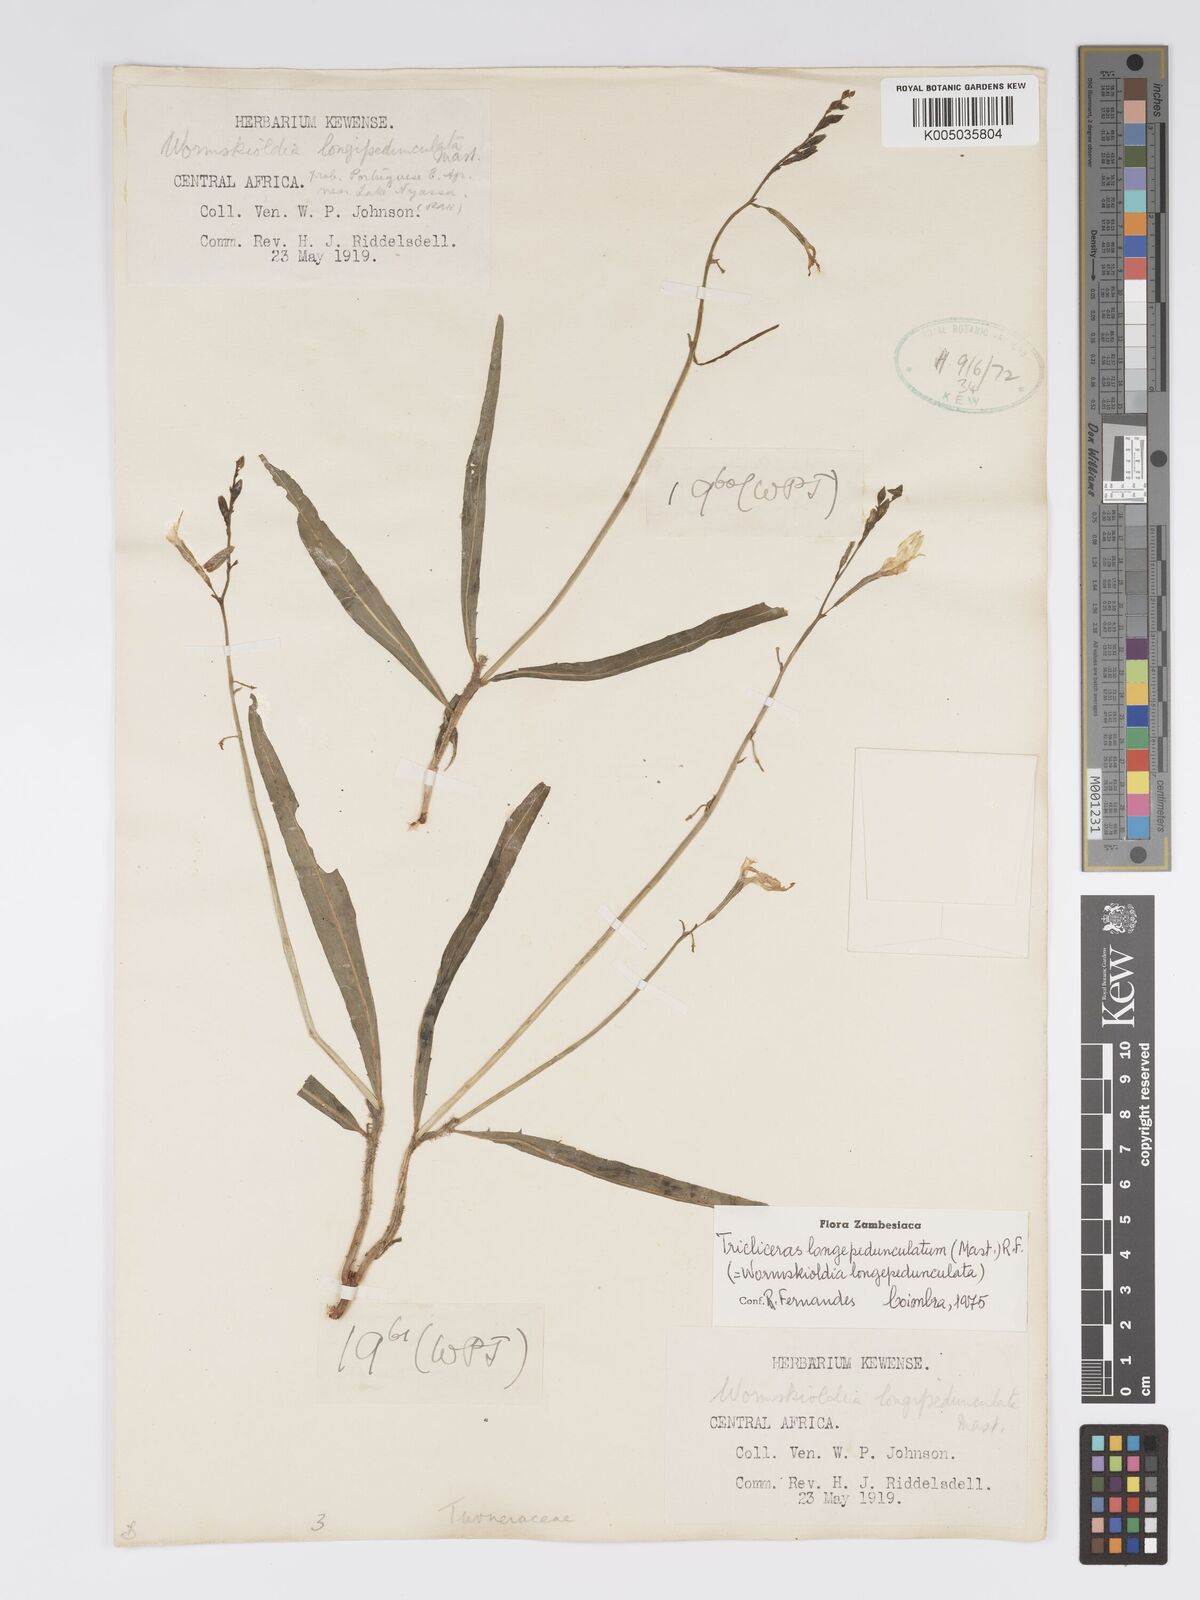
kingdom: Plantae
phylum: Tracheophyta
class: Magnoliopsida
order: Malpighiales
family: Turneraceae
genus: Tricliceras
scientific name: Tricliceras longepedunculatum
